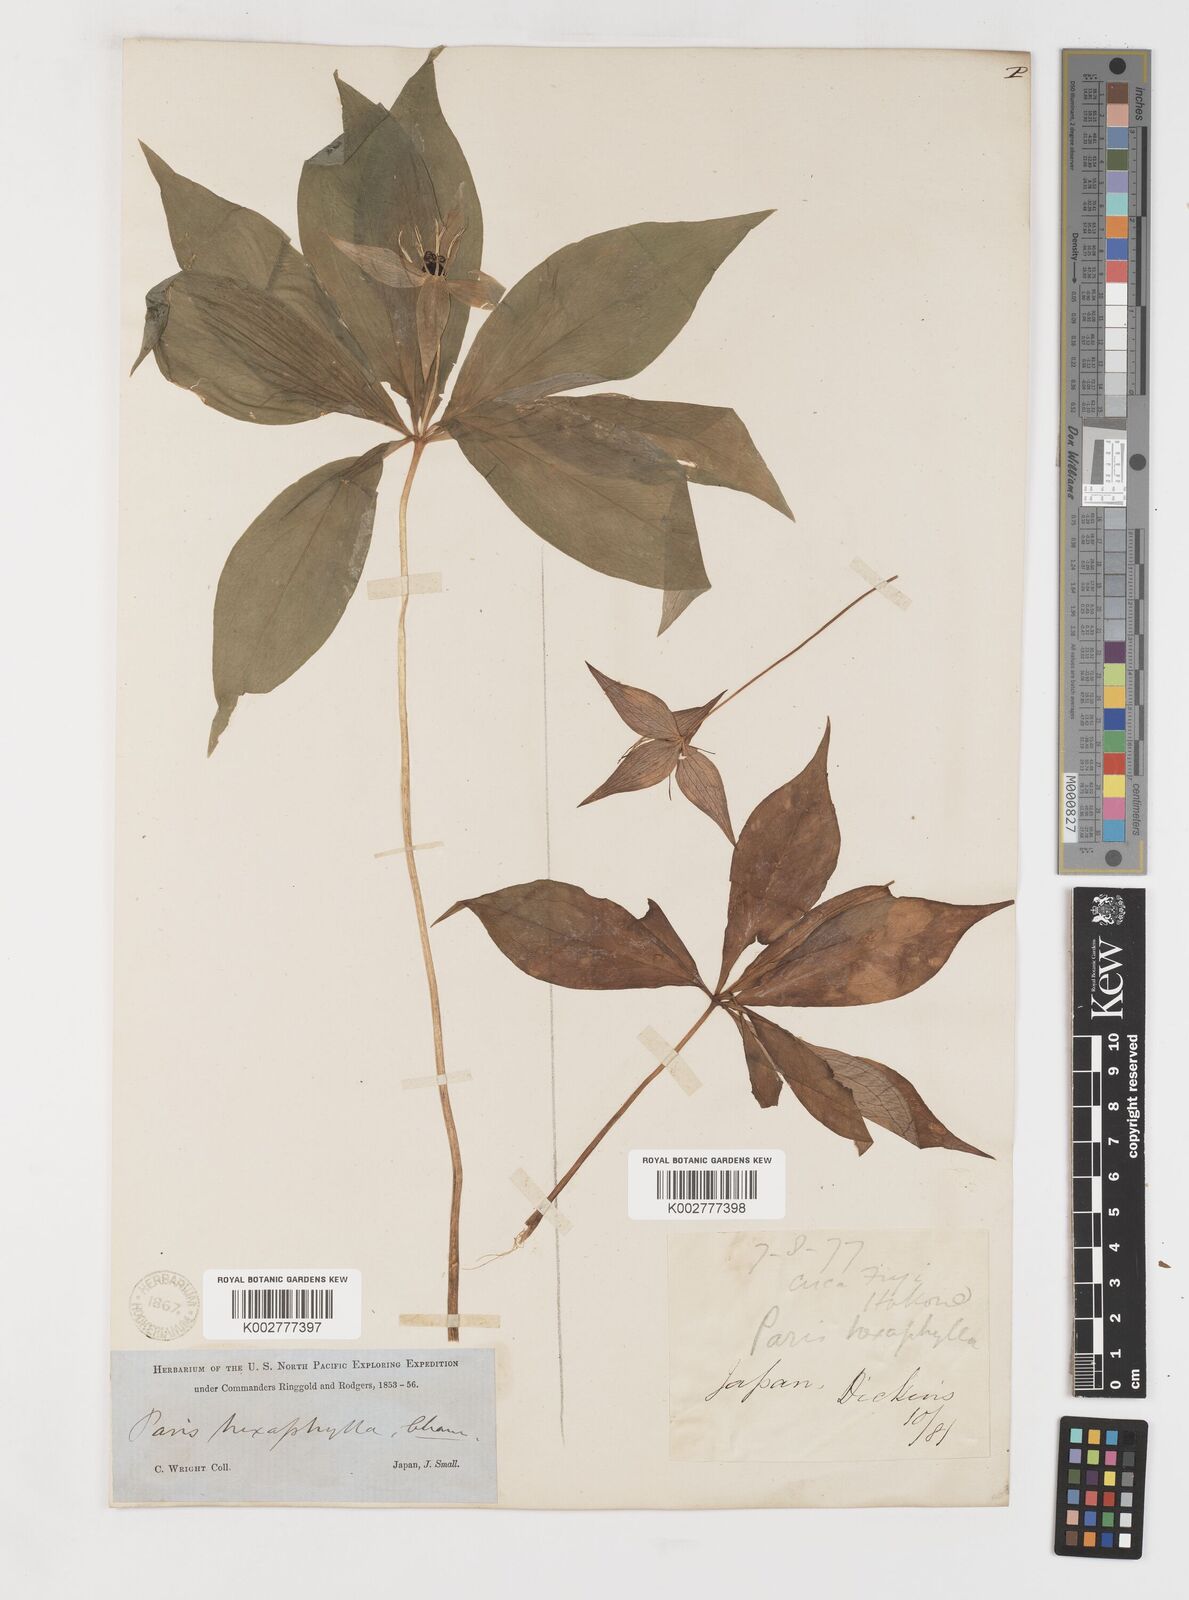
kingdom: Plantae
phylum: Tracheophyta
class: Liliopsida
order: Liliales
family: Melanthiaceae
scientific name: Melanthiaceae
